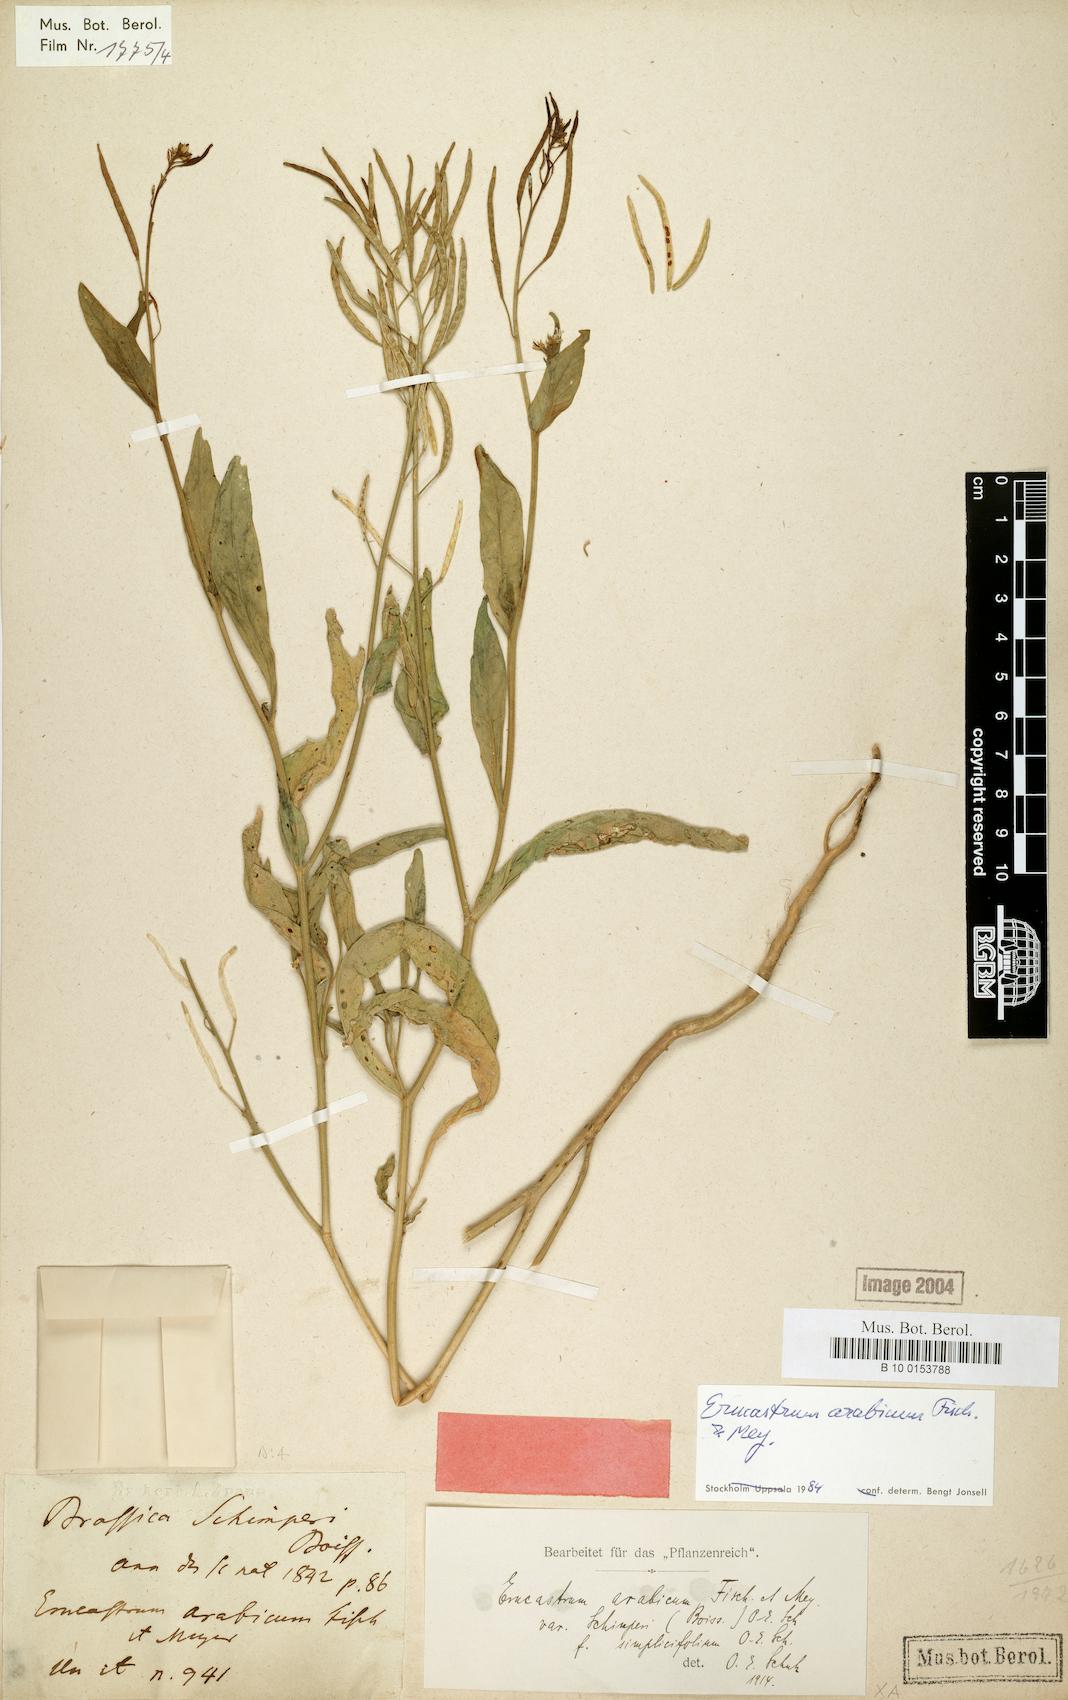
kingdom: Plantae
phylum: Tracheophyta
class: Magnoliopsida
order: Brassicales
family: Brassicaceae
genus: Erucastrum
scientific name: Erucastrum arabicum
